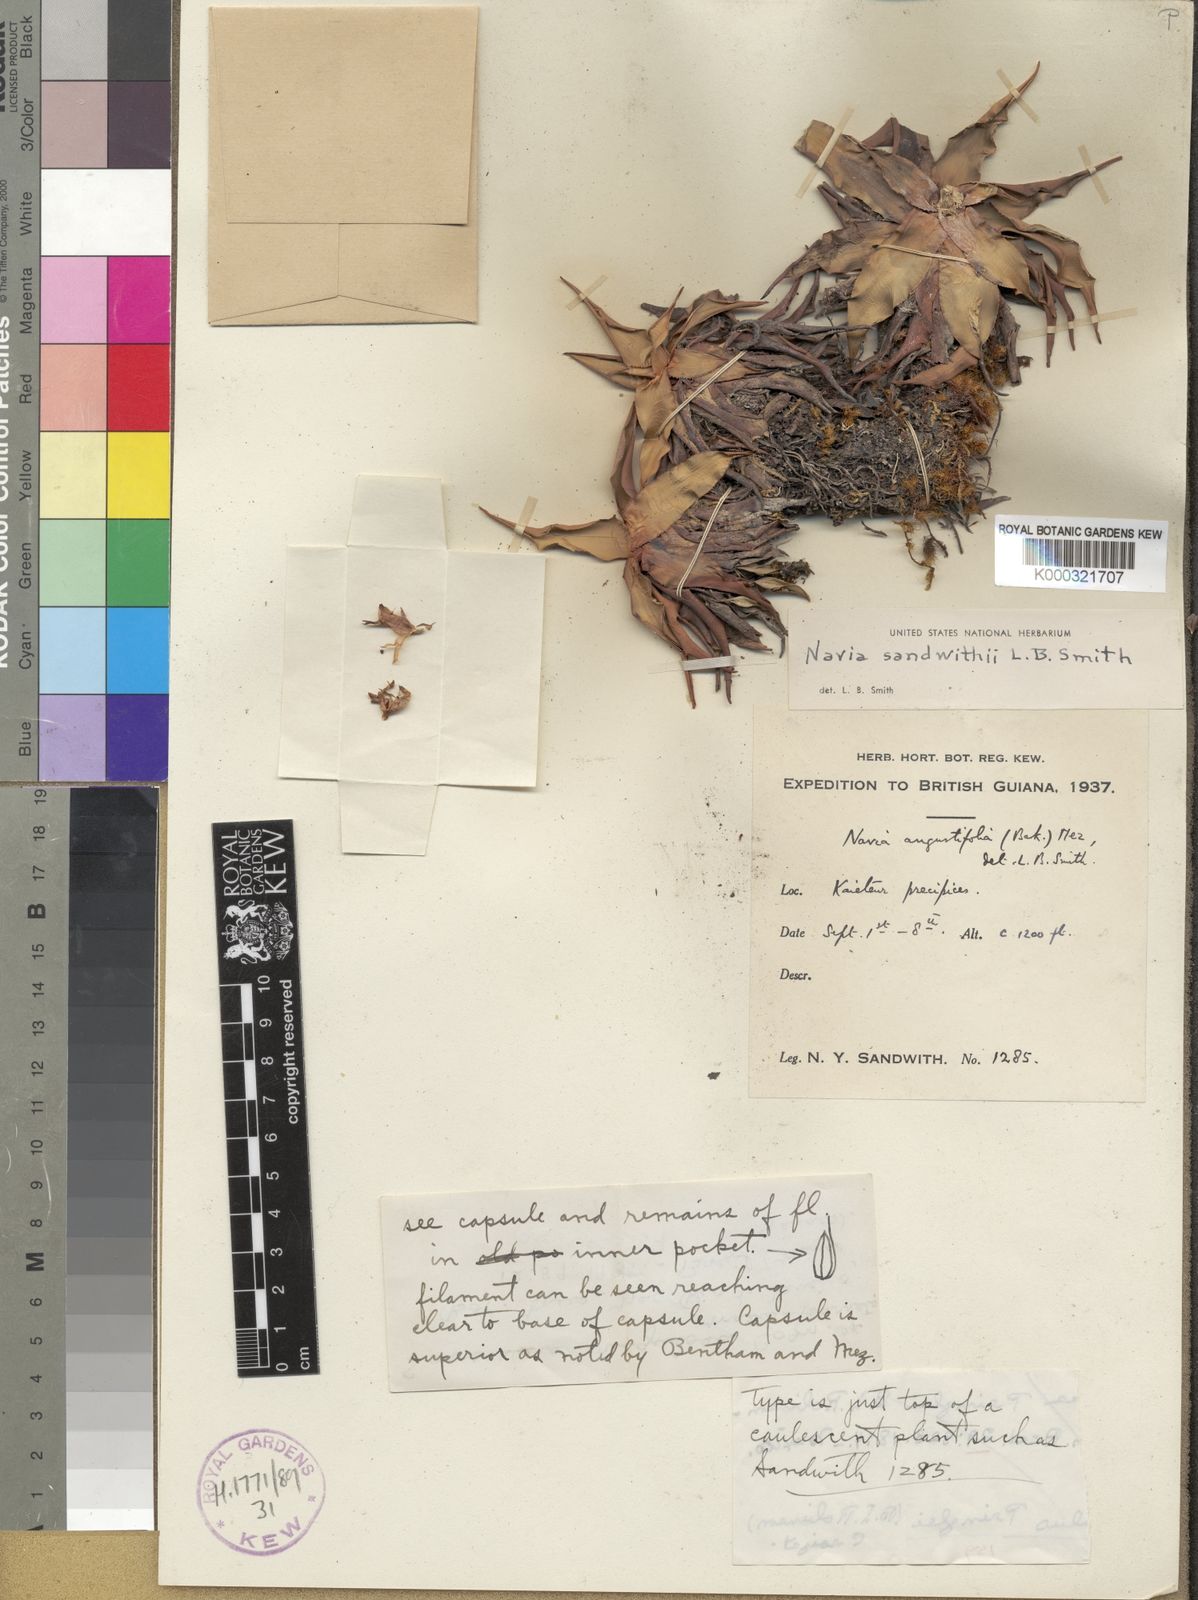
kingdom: Plantae
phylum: Tracheophyta
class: Liliopsida
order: Poales
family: Bromeliaceae
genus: Navia
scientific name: Navia sandwithii
